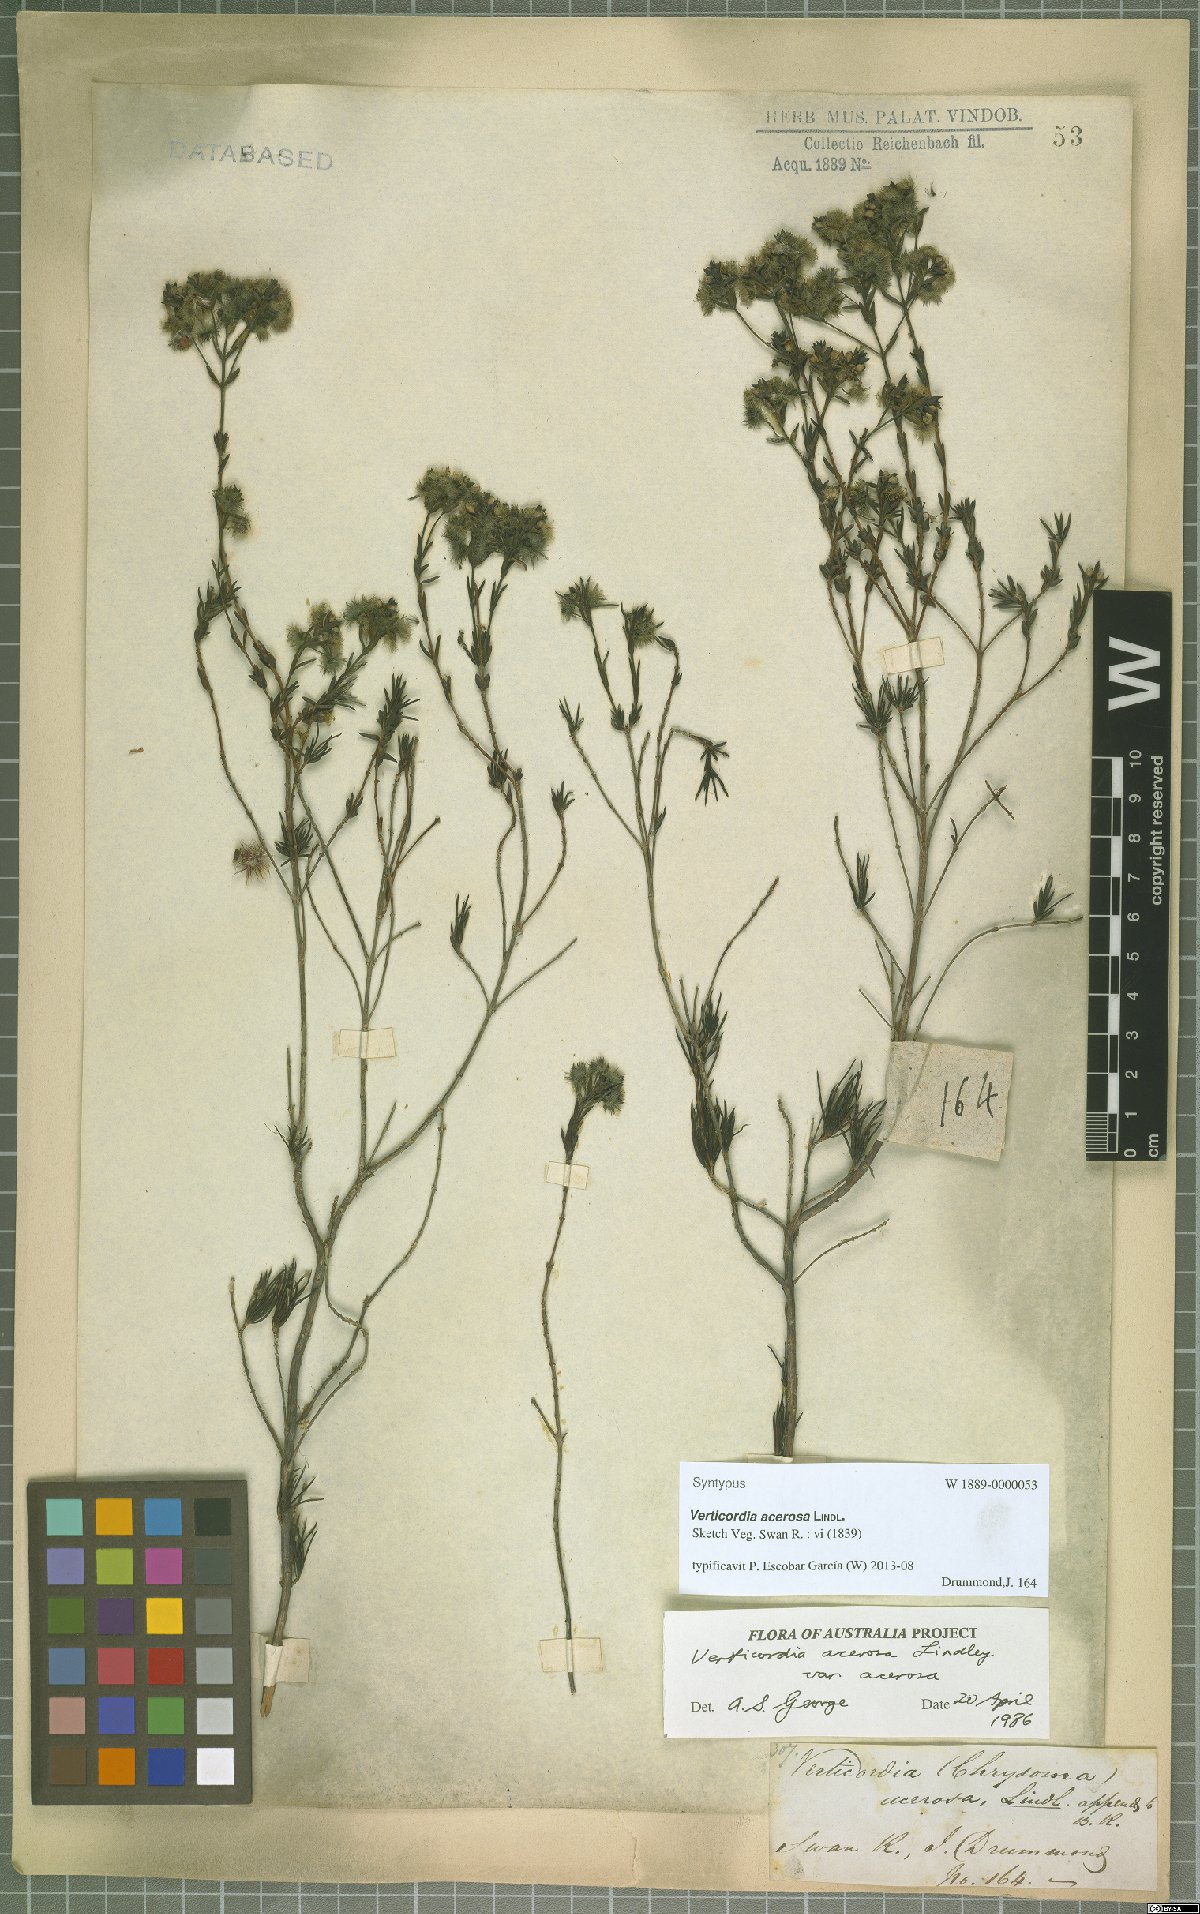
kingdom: Plantae
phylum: Tracheophyta
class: Magnoliopsida
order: Myrtales
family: Myrtaceae
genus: Verticordia
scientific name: Verticordia acerosa
